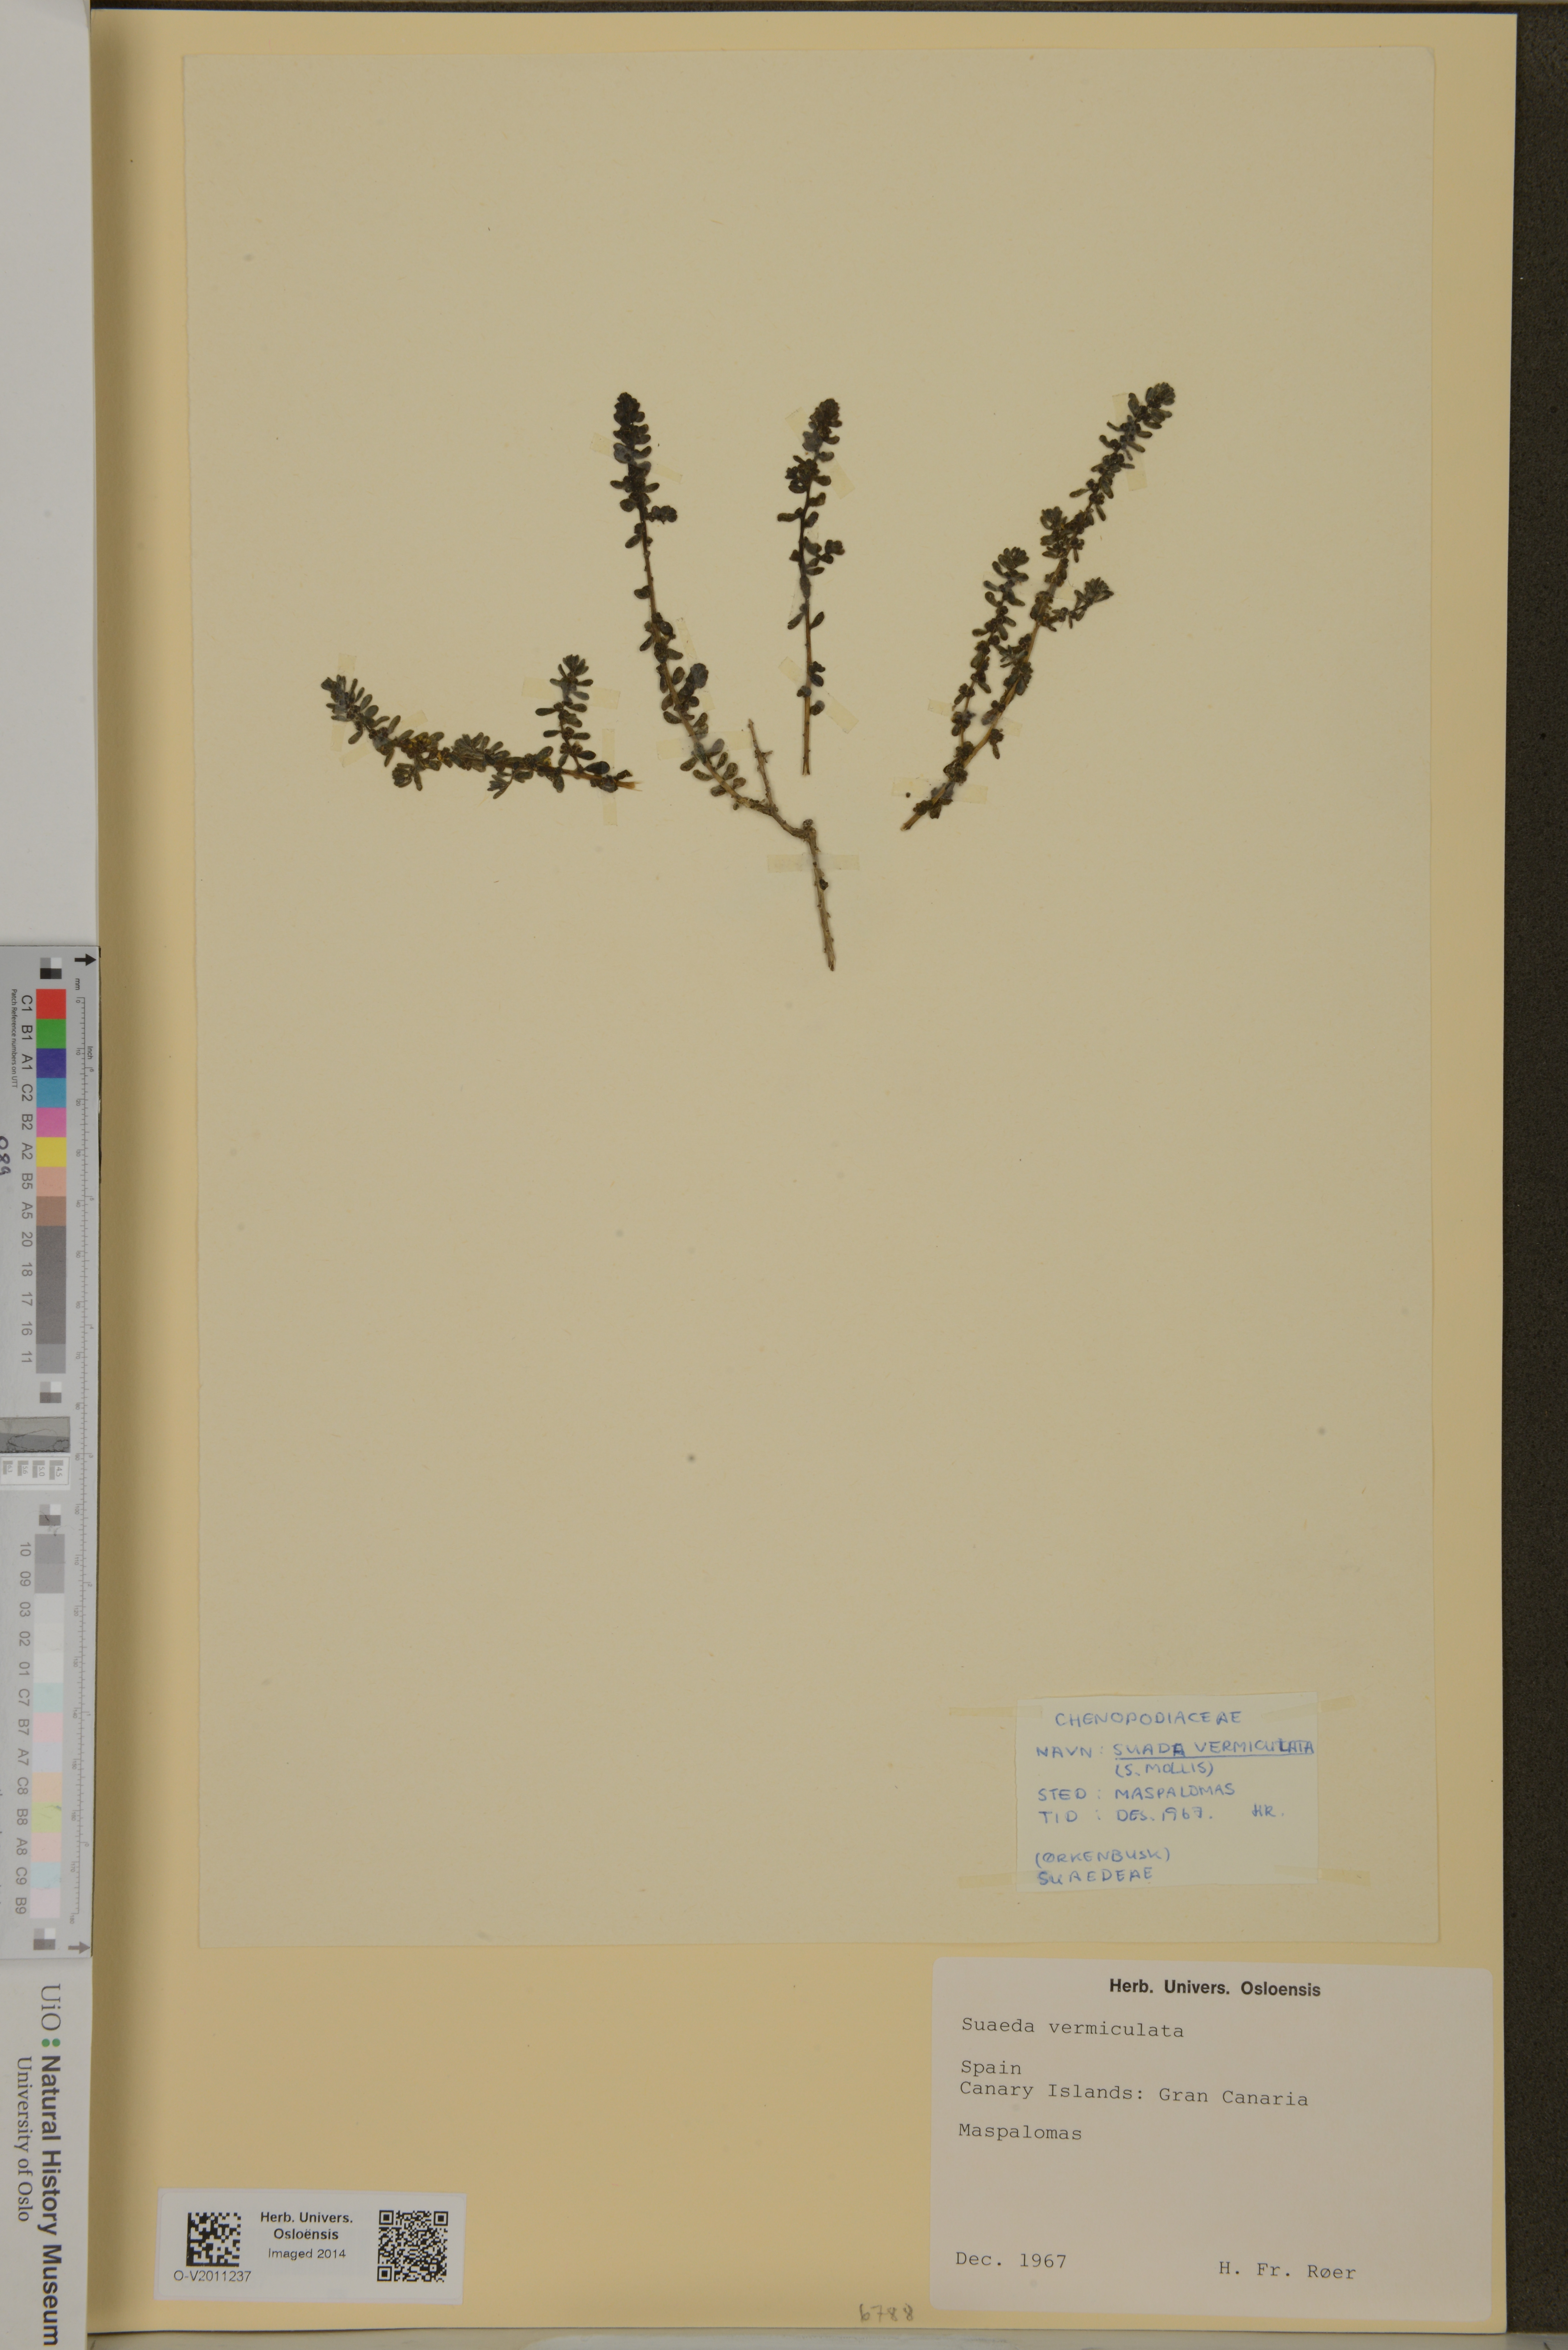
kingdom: Plantae
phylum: Tracheophyta
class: Magnoliopsida
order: Caryophyllales
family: Amaranthaceae
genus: Suaeda
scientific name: Suaeda vermiculata
